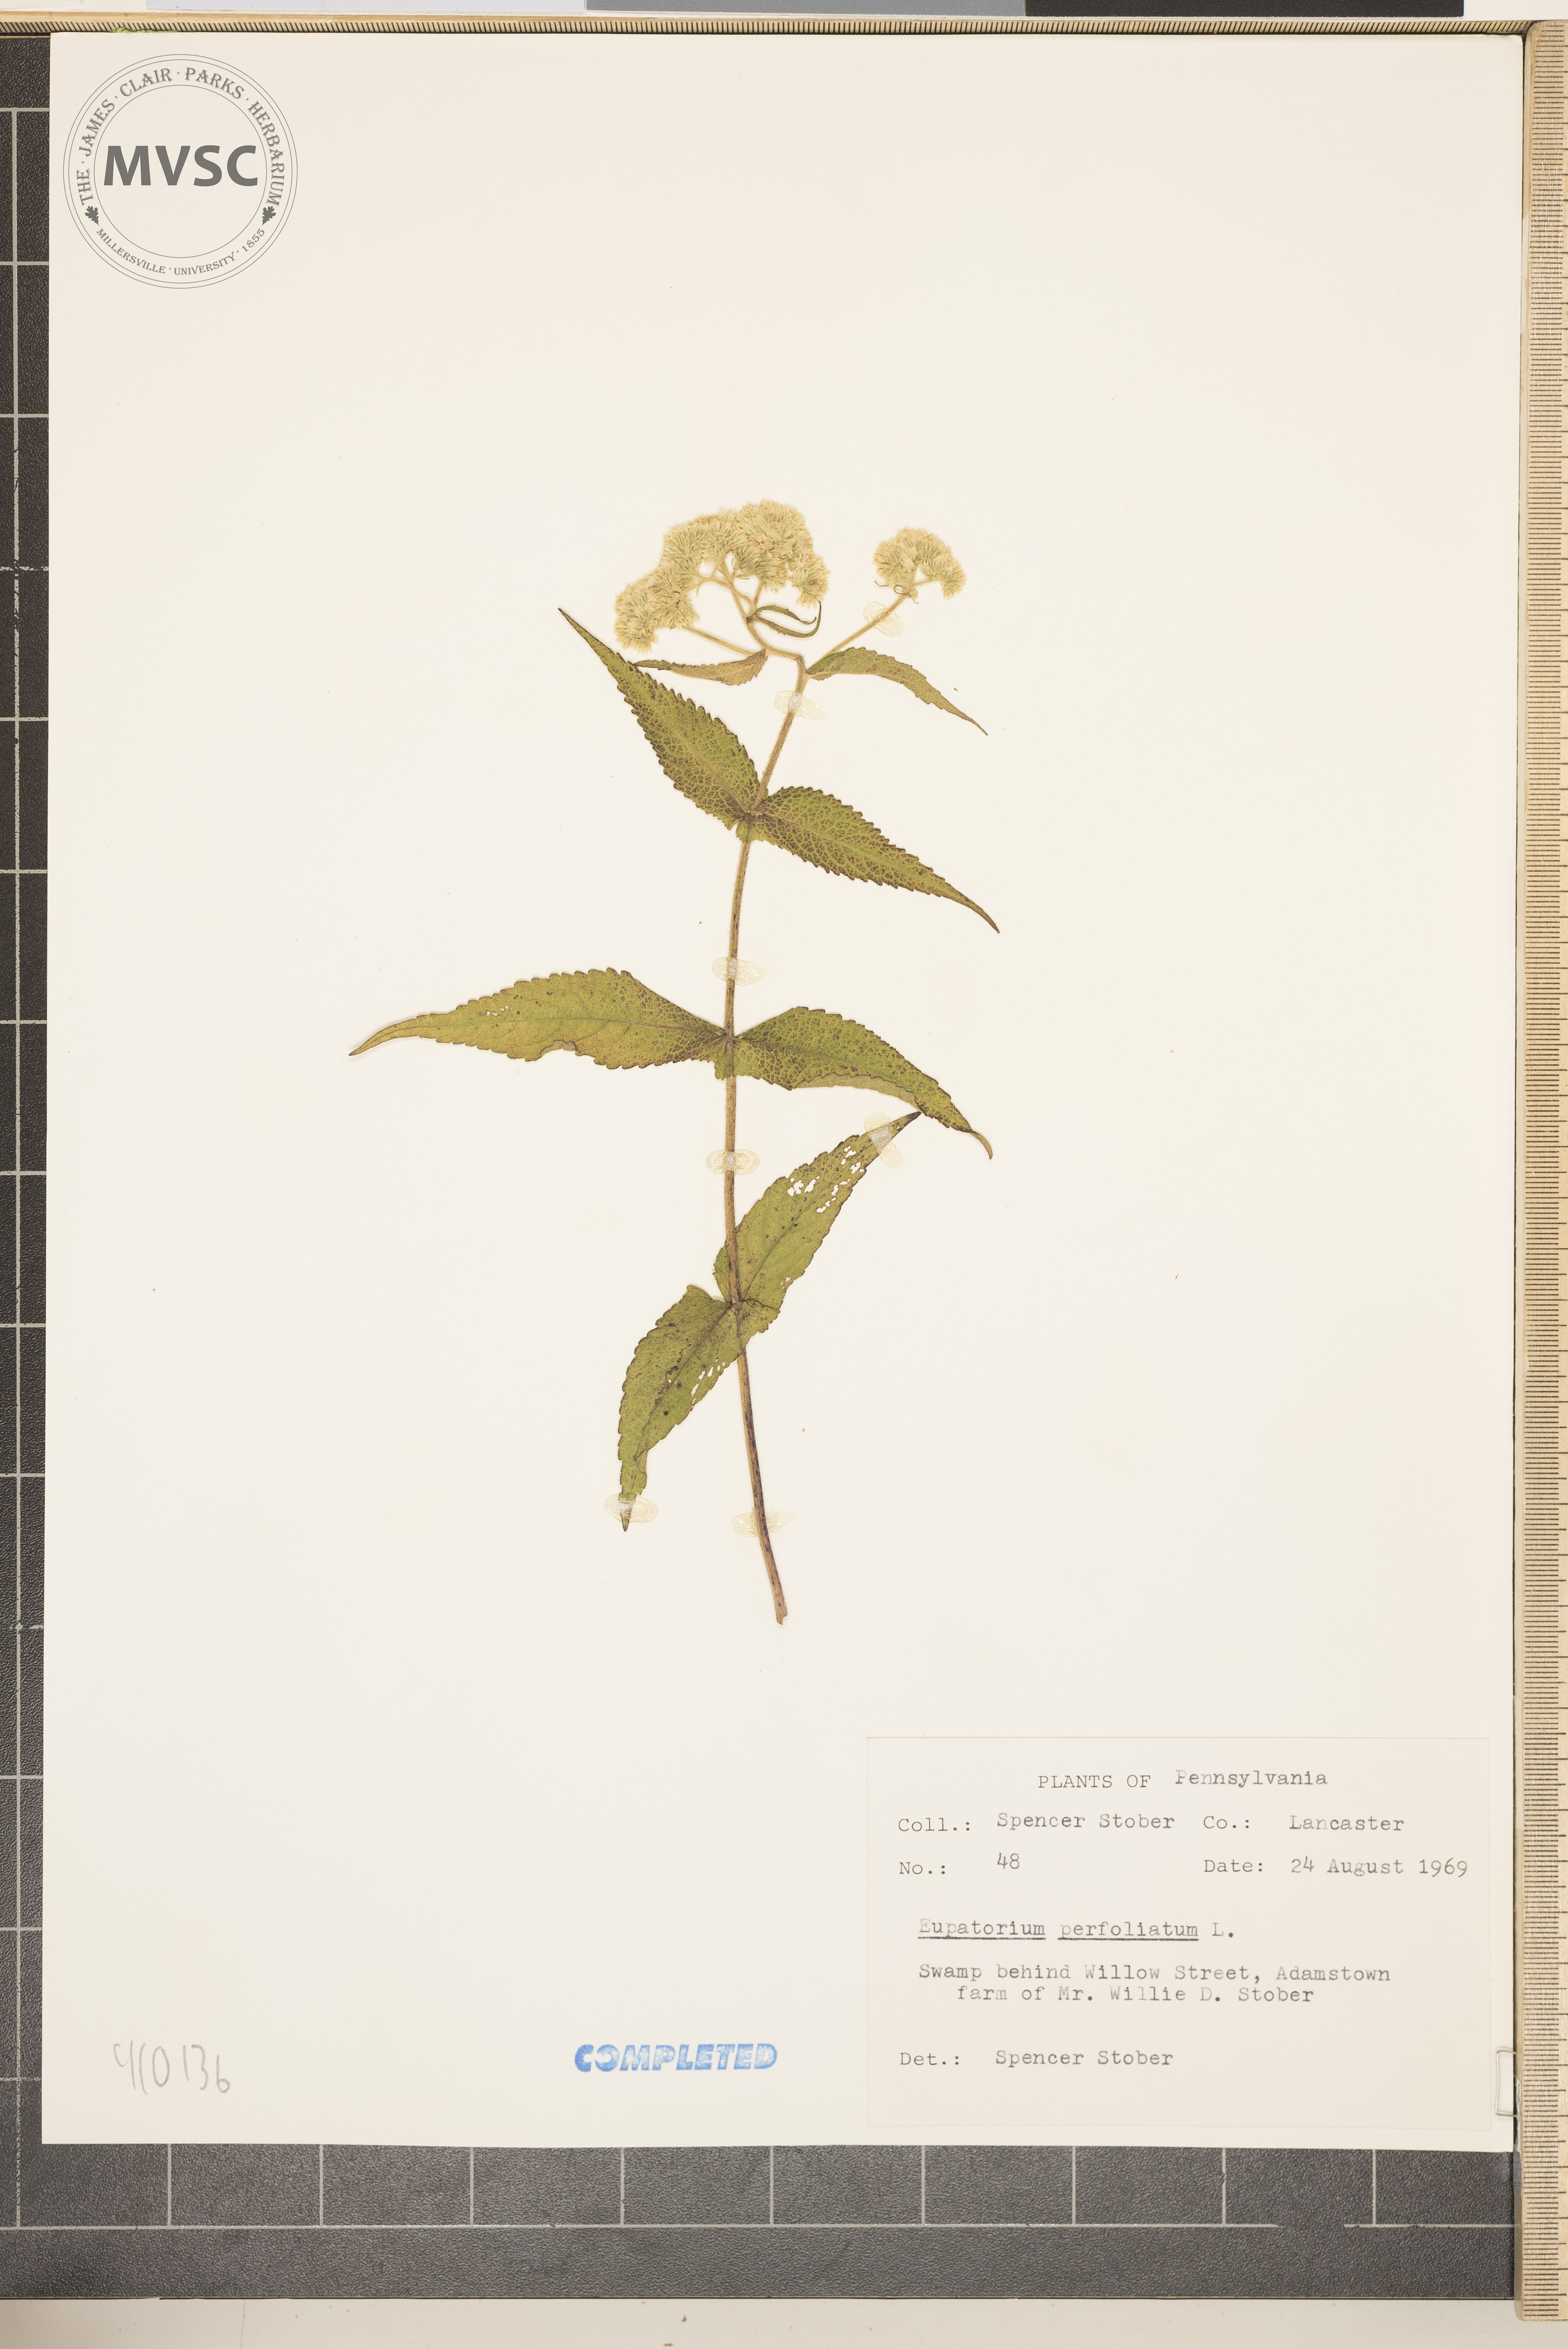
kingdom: Plantae
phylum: Tracheophyta
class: Magnoliopsida
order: Asterales
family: Asteraceae
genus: Eupatorium
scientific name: Eupatorium perfoliatum
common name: Boneset
